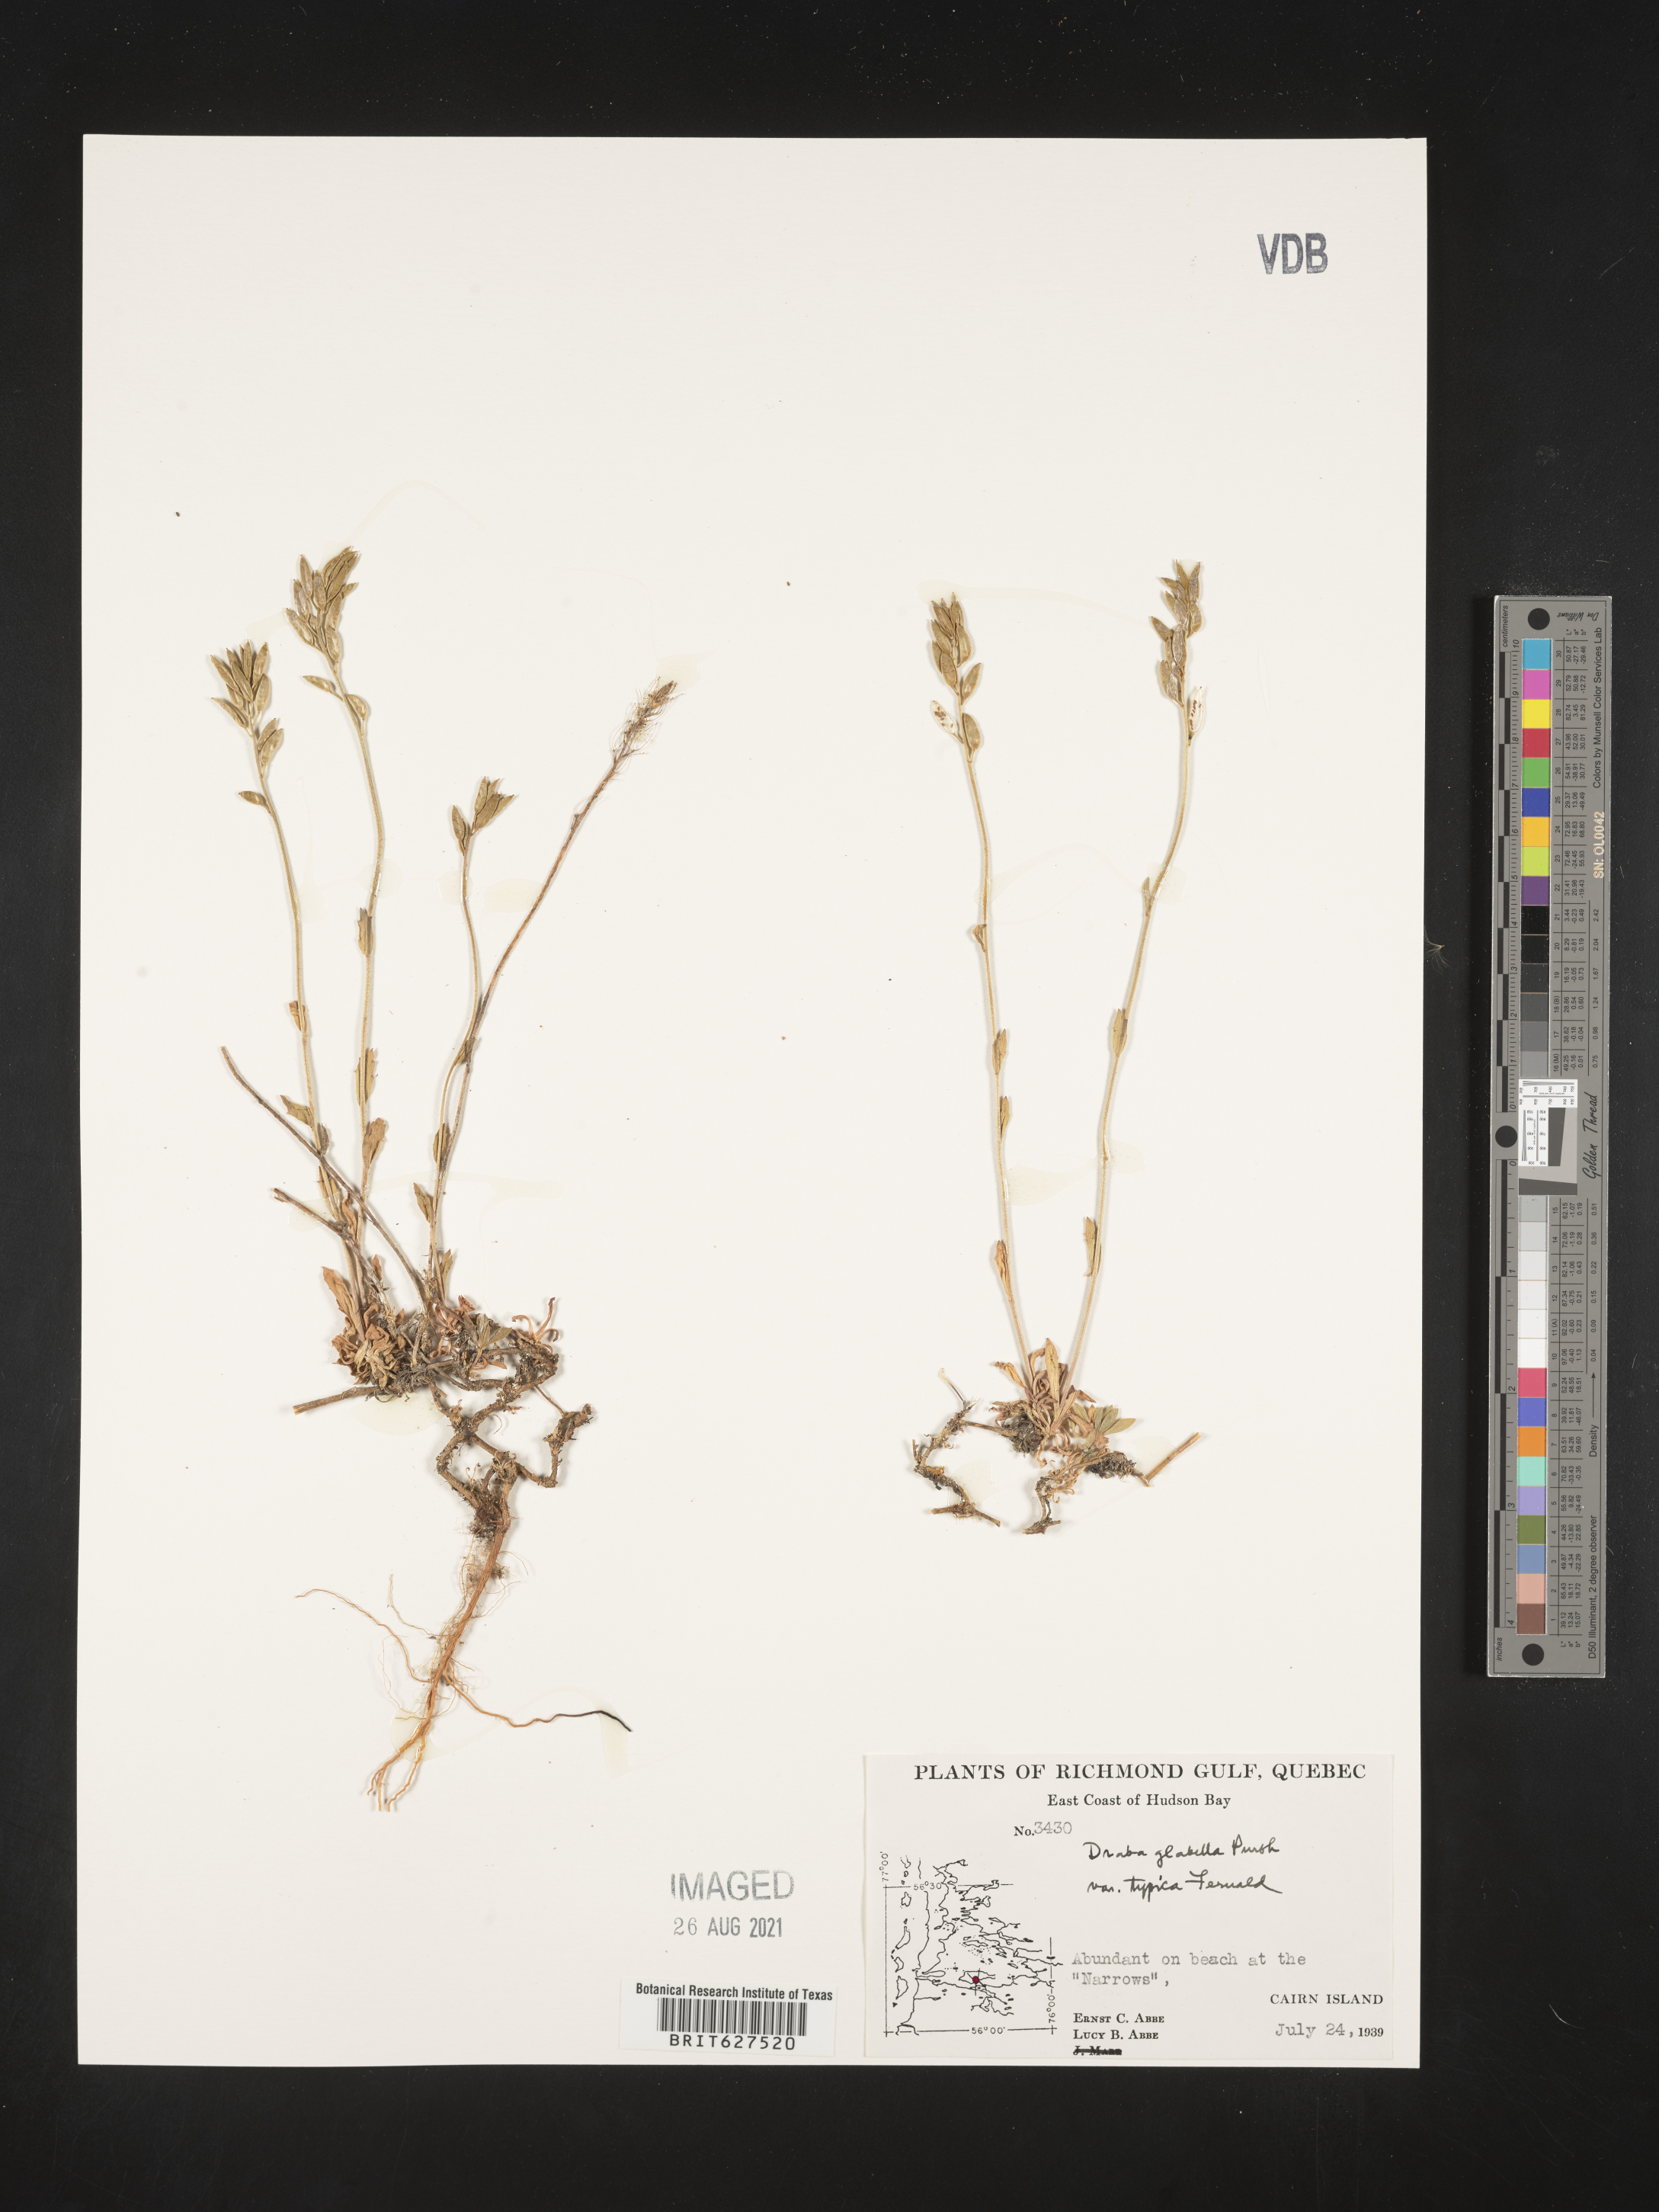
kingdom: Plantae
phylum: Tracheophyta
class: Magnoliopsida
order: Brassicales
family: Brassicaceae
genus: Draba
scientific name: Draba glabella
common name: Glaucous draba
